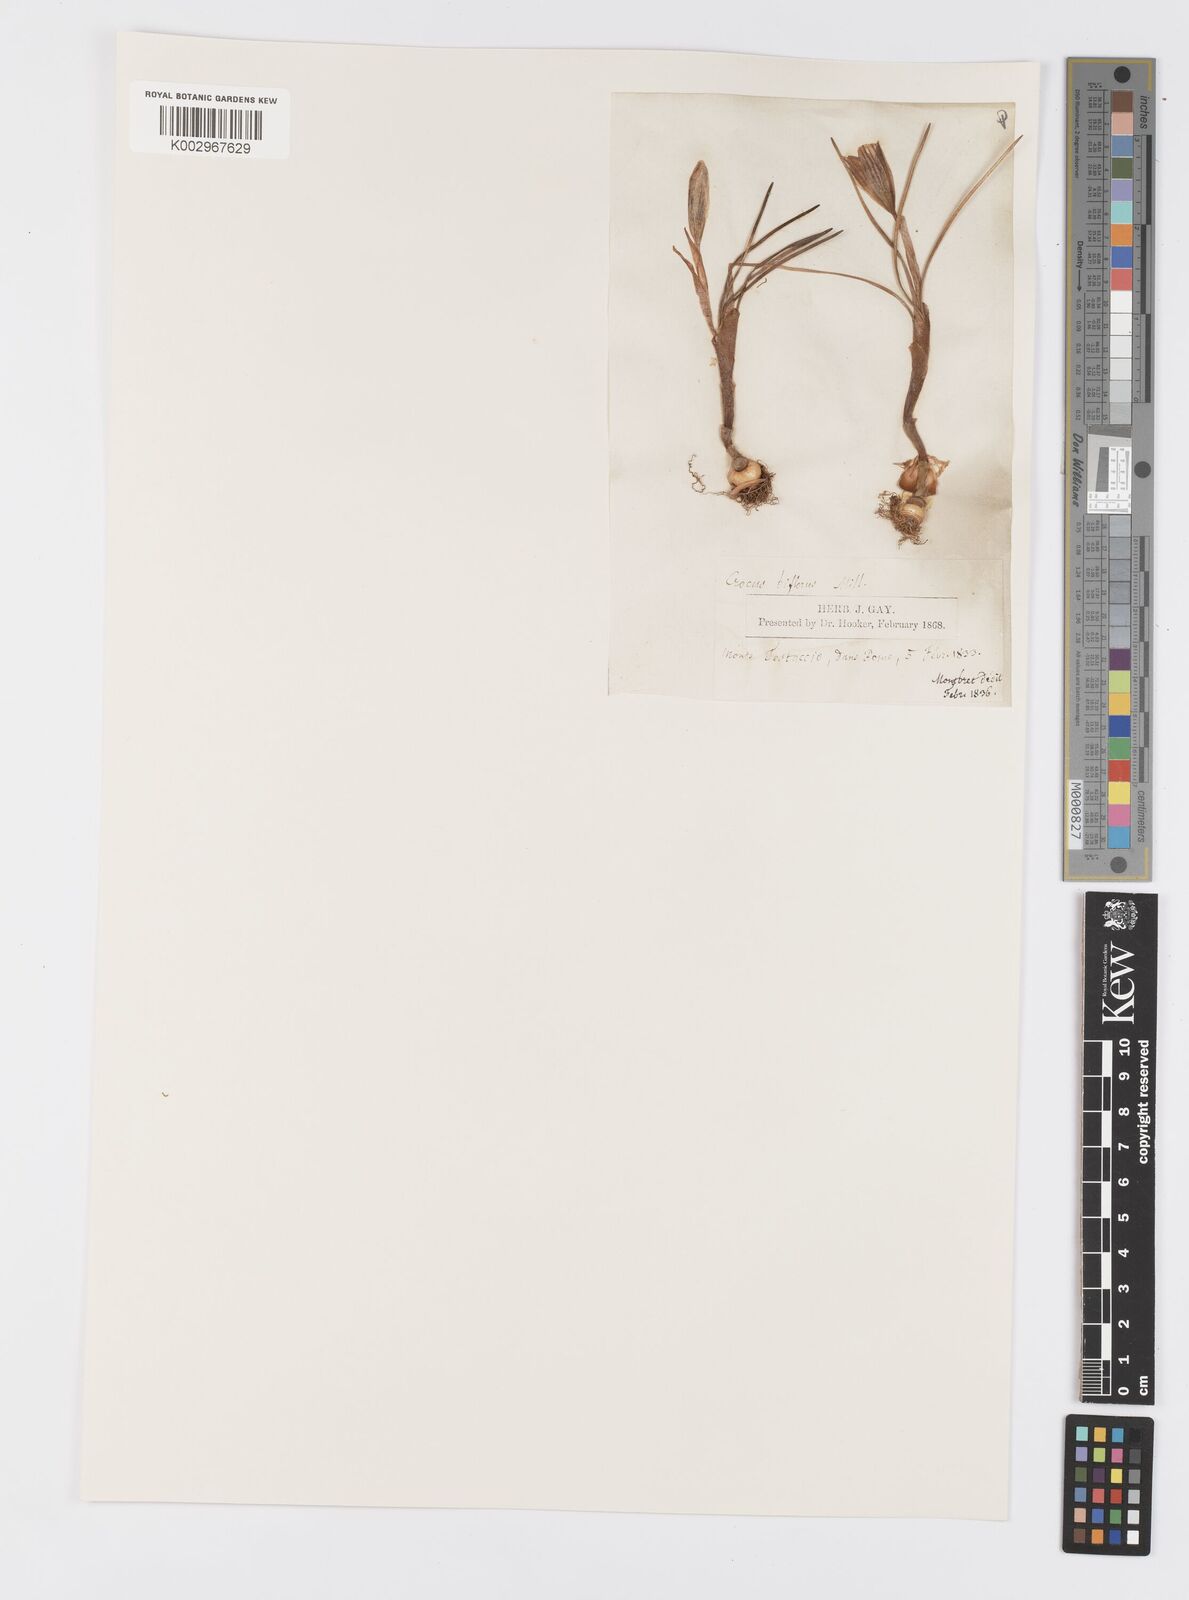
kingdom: Plantae
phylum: Tracheophyta
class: Liliopsida
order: Asparagales
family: Iridaceae
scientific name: Iridaceae
